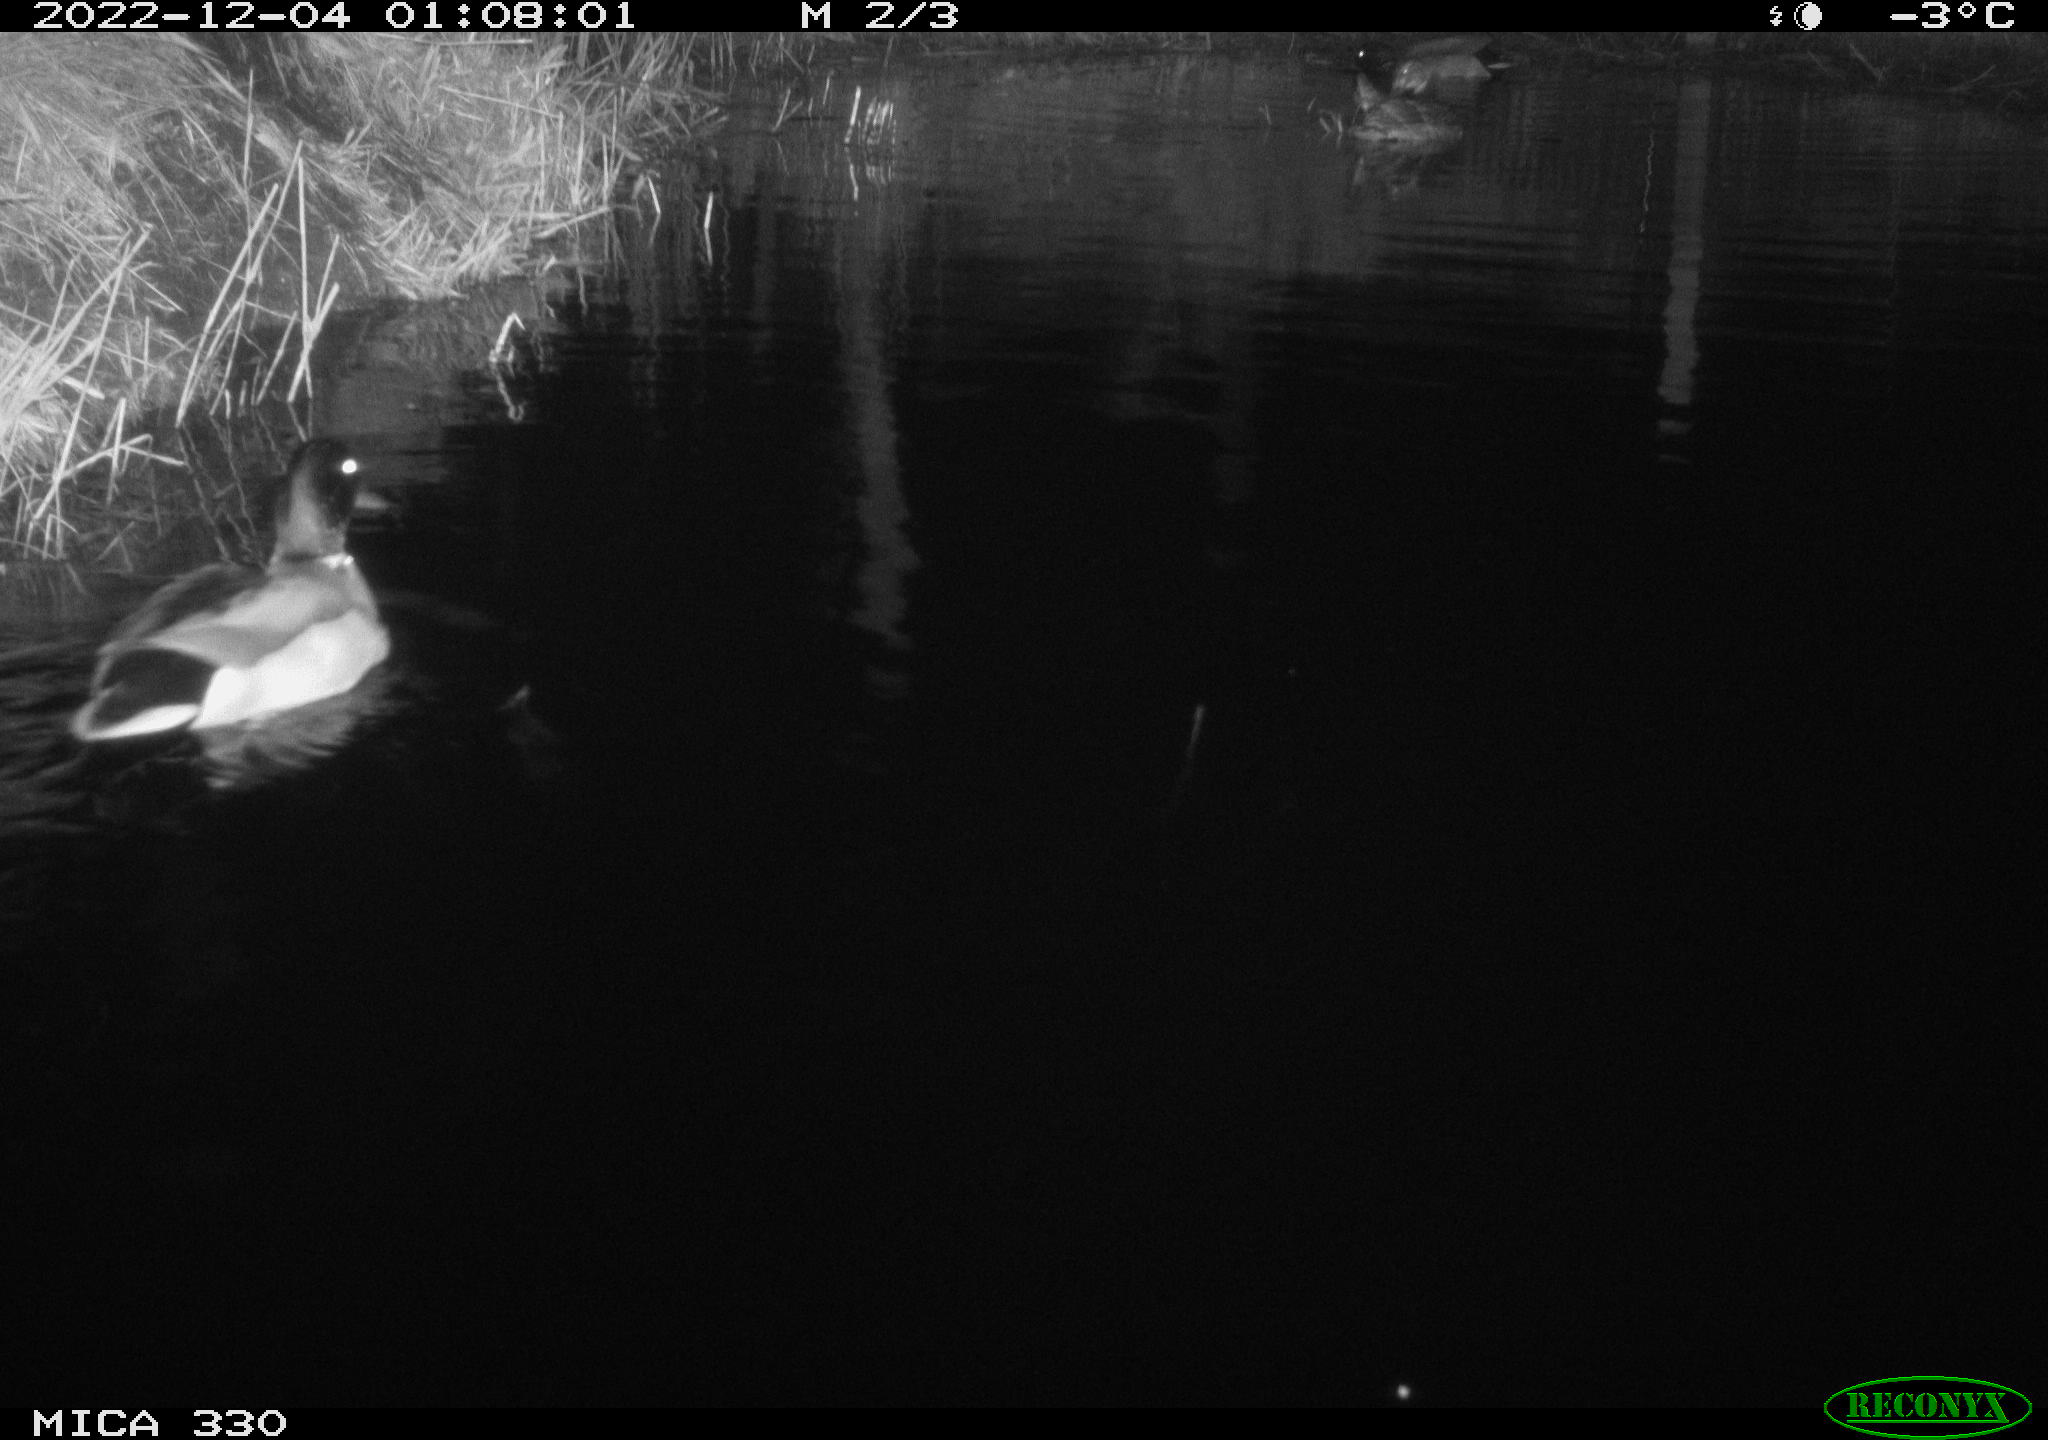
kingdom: Animalia
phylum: Chordata
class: Aves
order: Anseriformes
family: Anatidae
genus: Anas
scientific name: Anas platyrhynchos
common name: Mallard
